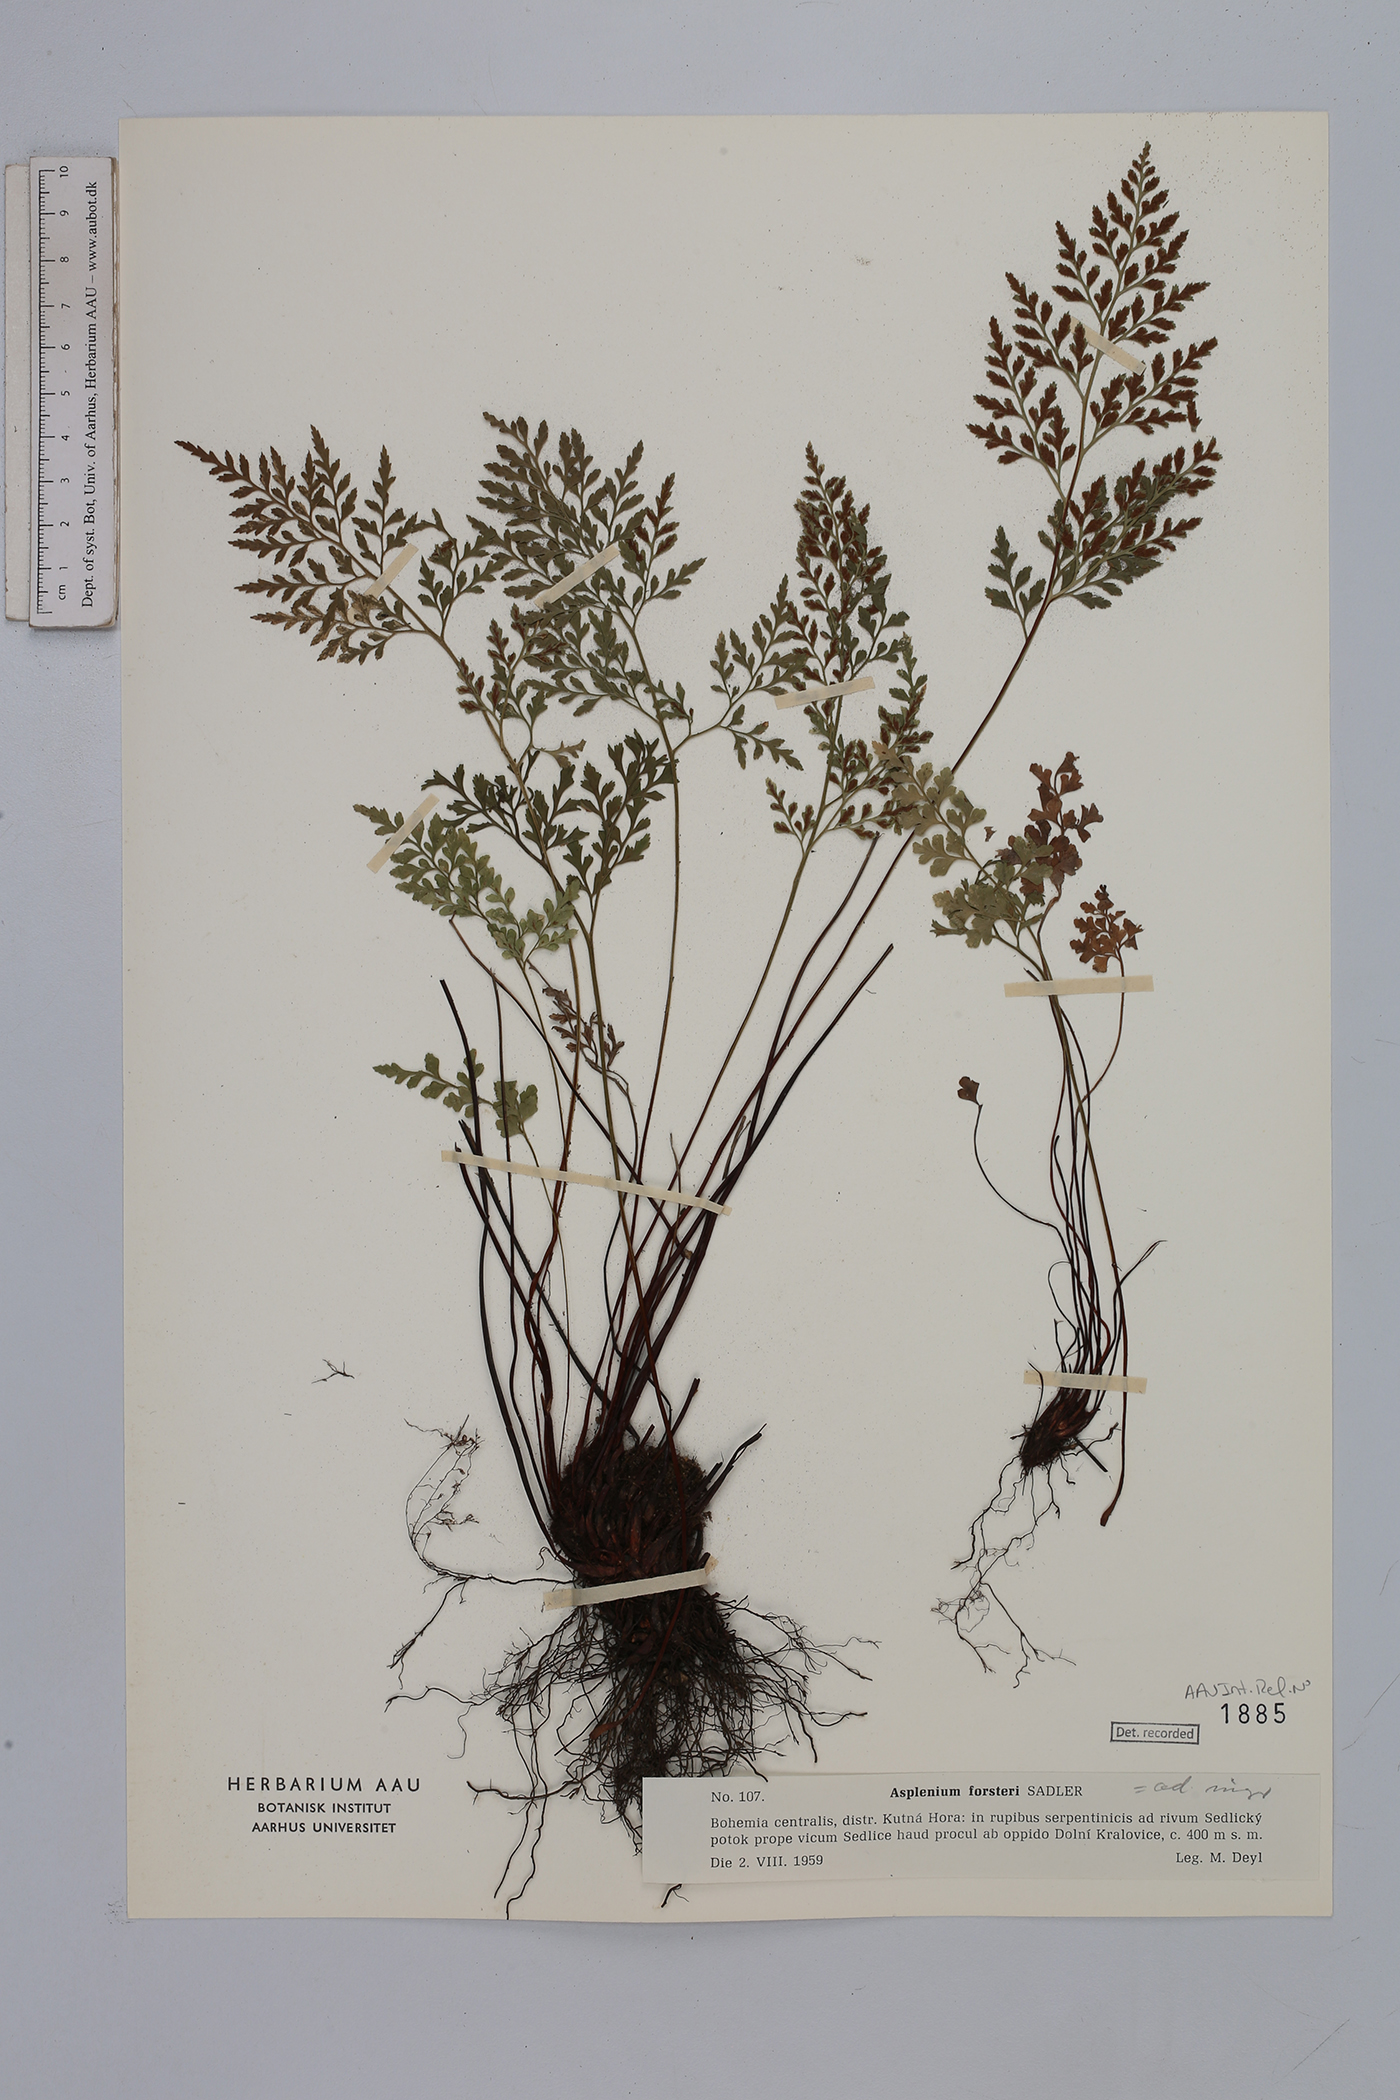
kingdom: Plantae
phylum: Tracheophyta
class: Polypodiopsida
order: Polypodiales
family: Aspleniaceae
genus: Asplenium
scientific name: Asplenium cuneifolium
